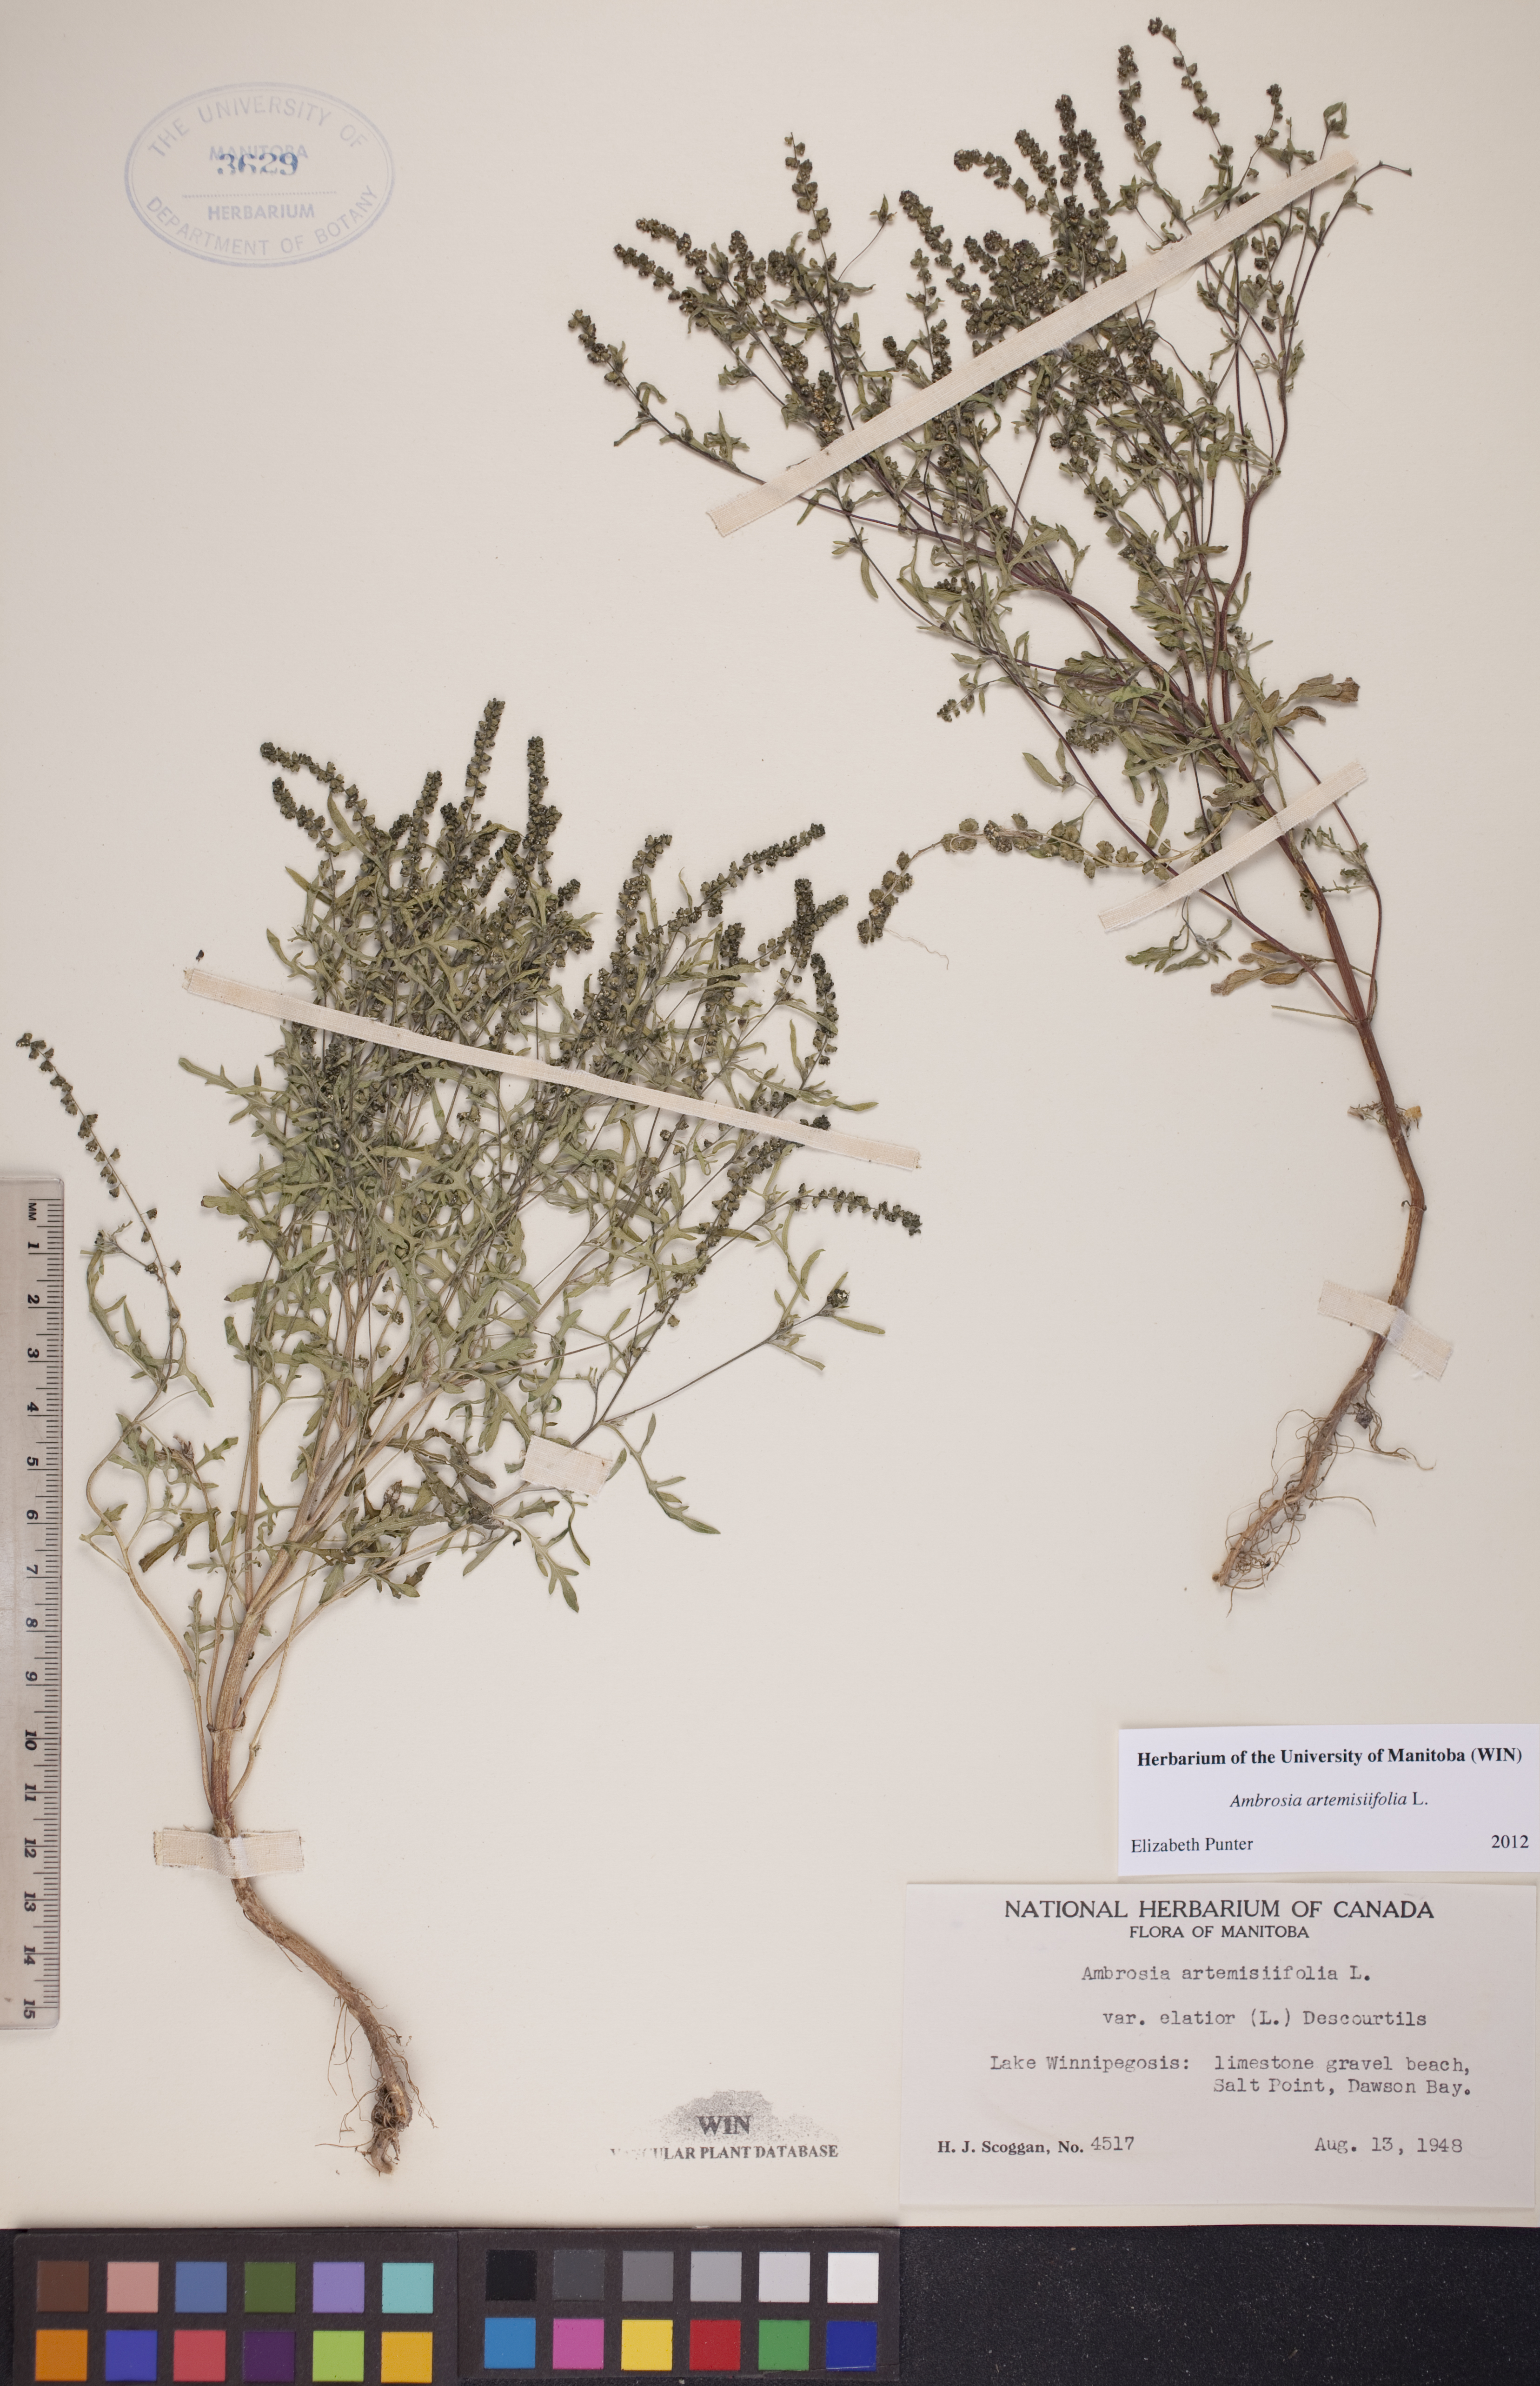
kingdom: Plantae
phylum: Tracheophyta
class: Magnoliopsida
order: Asterales
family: Asteraceae
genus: Ambrosia
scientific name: Ambrosia artemisiifolia
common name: Annual ragweed
